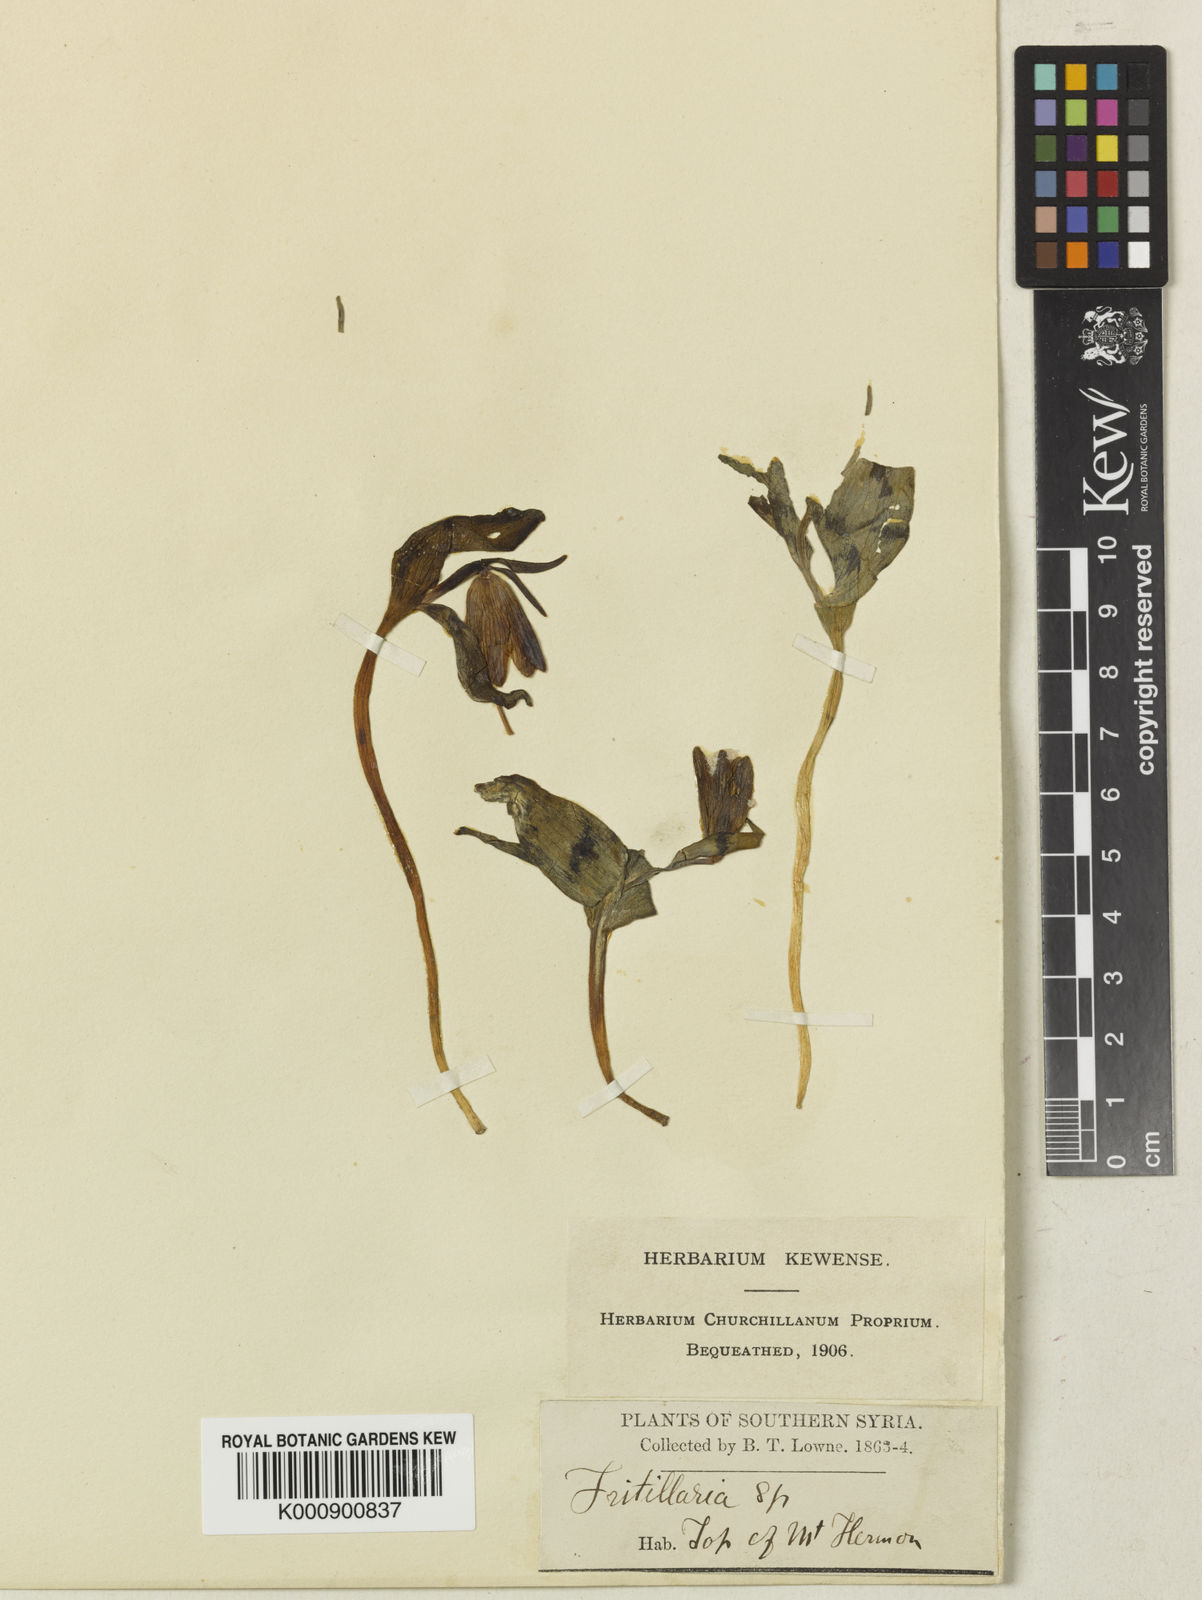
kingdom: Plantae
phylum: Tracheophyta
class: Liliopsida
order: Liliales
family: Liliaceae
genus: Fritillaria
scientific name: Fritillaria crassifolia
